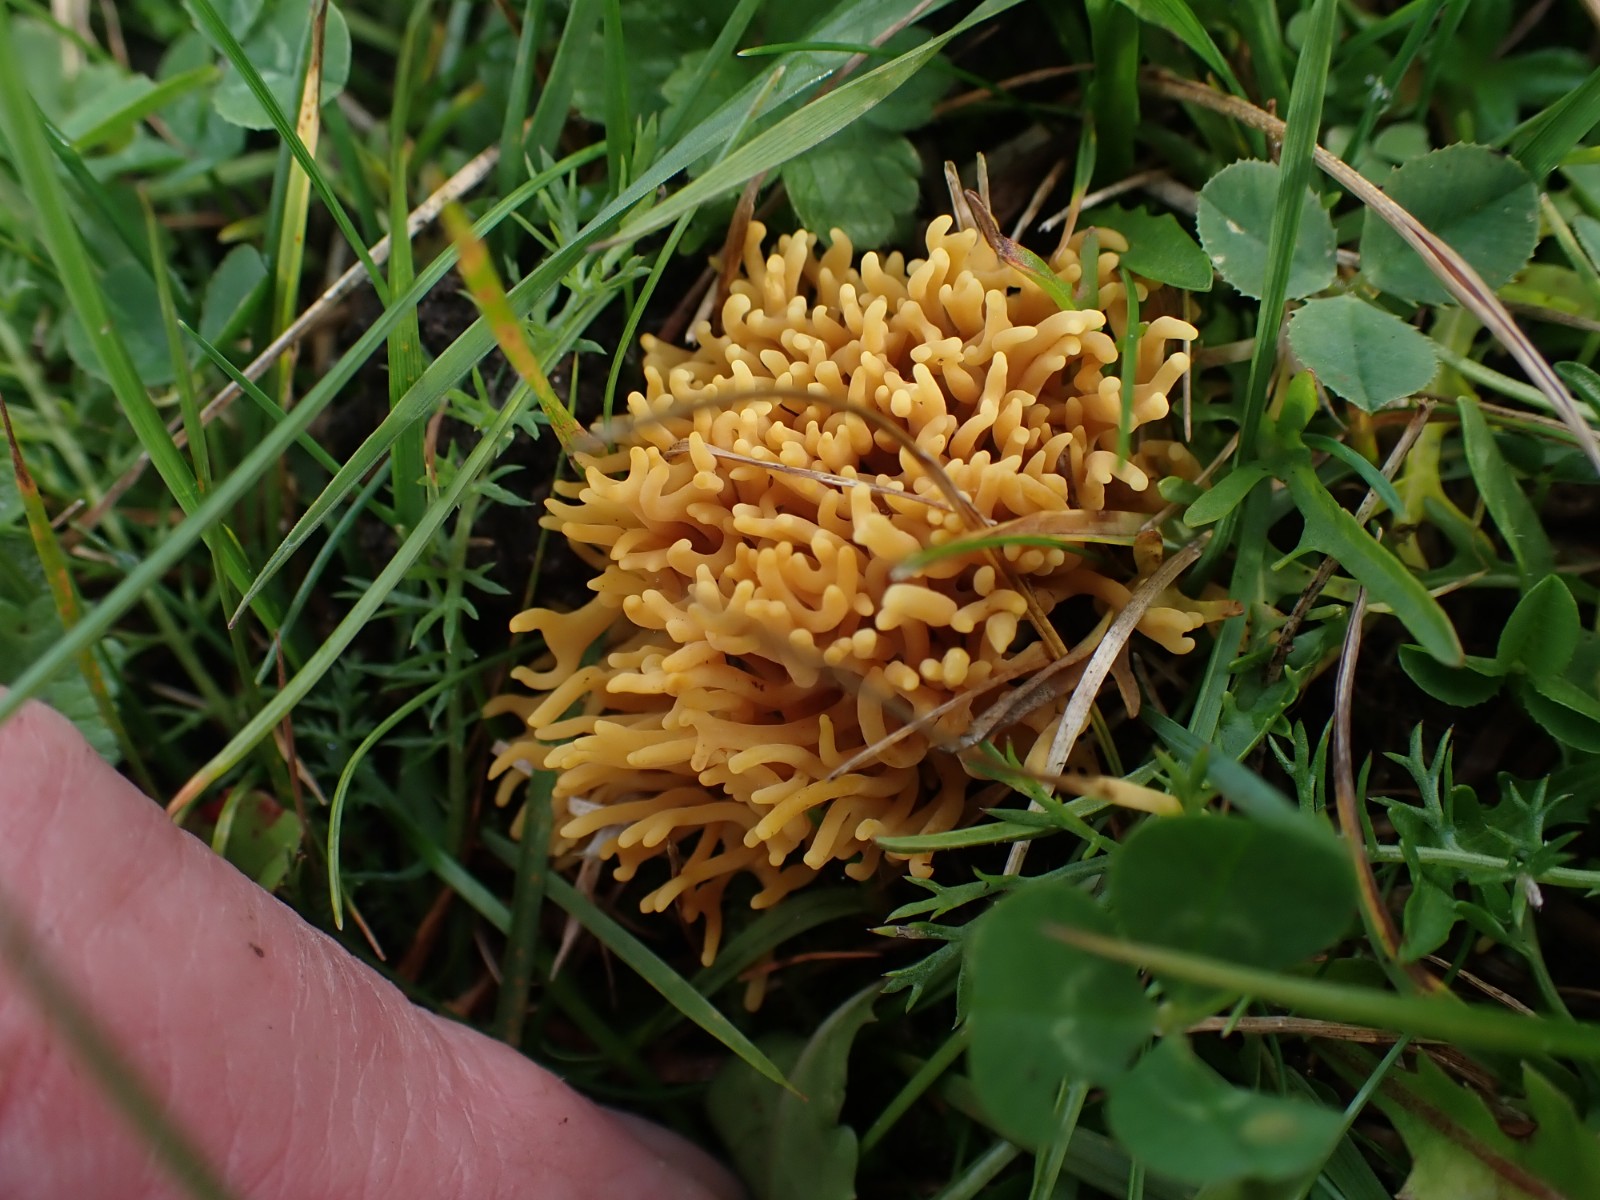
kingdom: Fungi
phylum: Basidiomycota
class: Agaricomycetes
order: Agaricales
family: Clavariaceae
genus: Clavulinopsis
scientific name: Clavulinopsis corniculata
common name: eng-køllesvamp
